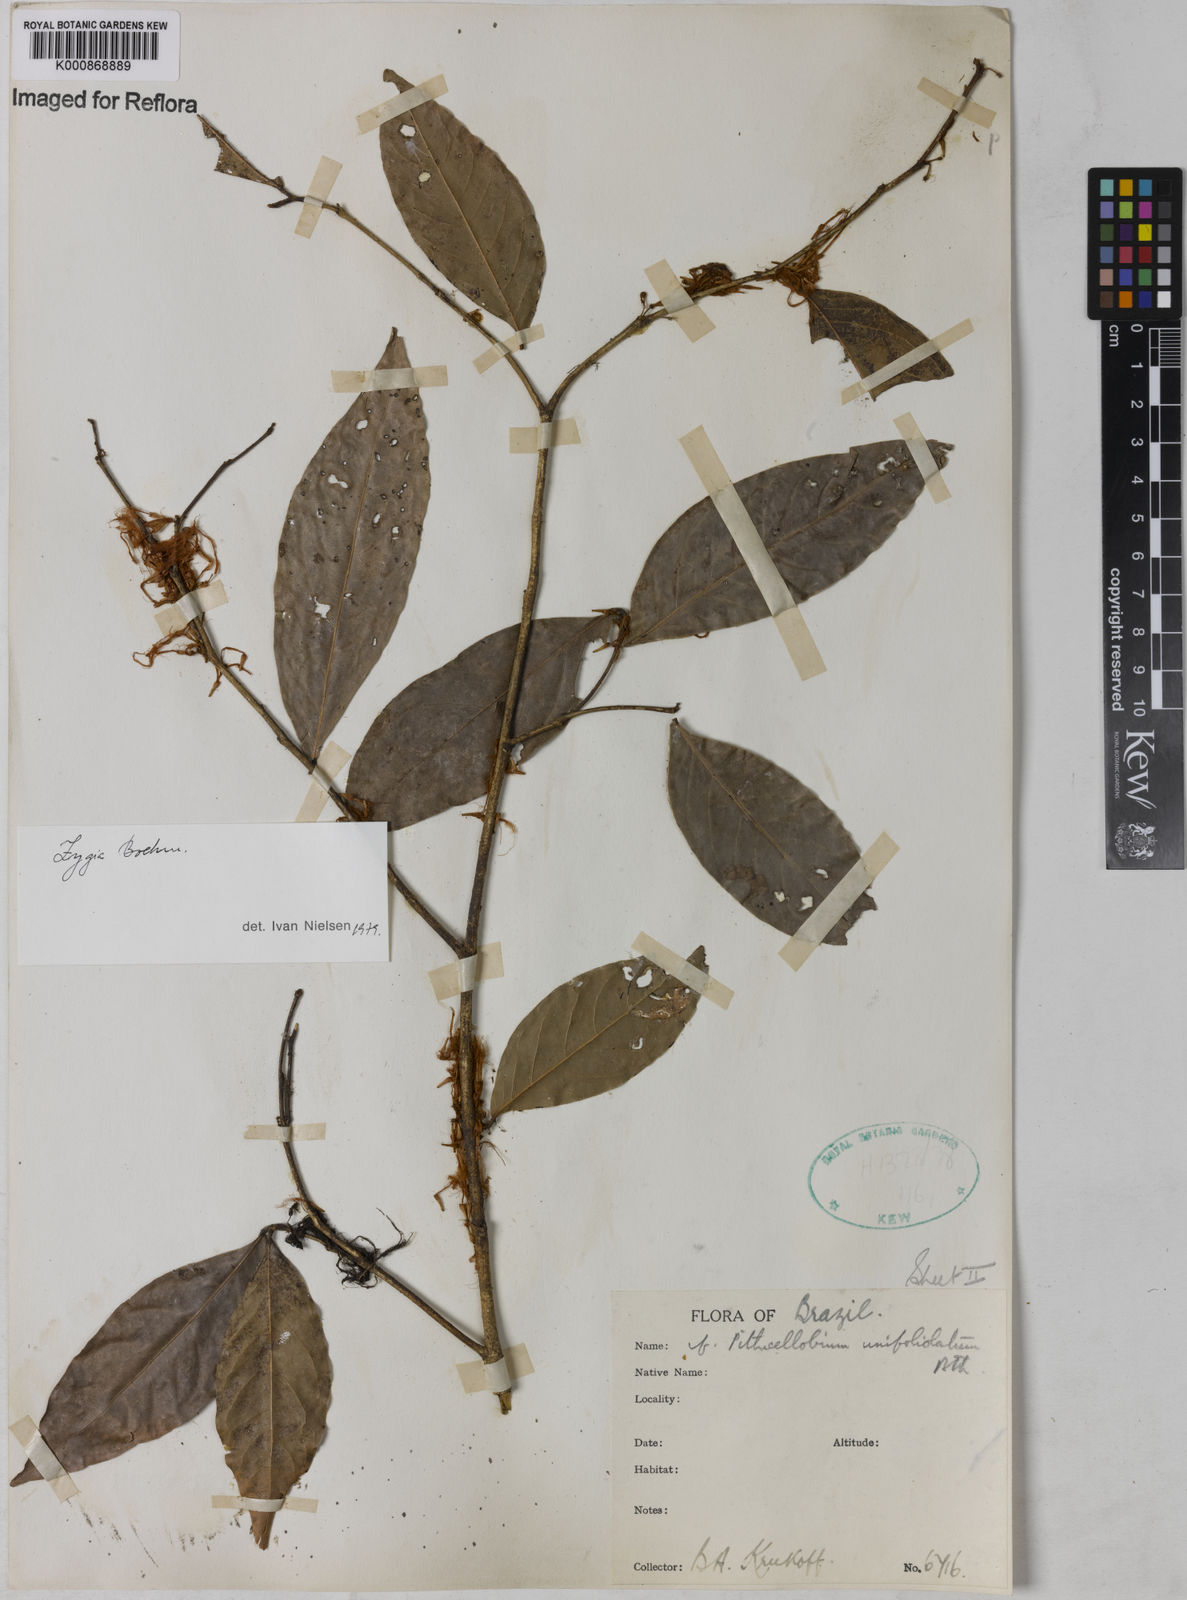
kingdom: Plantae
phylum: Tracheophyta
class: Magnoliopsida
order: Fabales
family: Fabaceae
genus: Zygia
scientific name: Zygia unifoliolata
